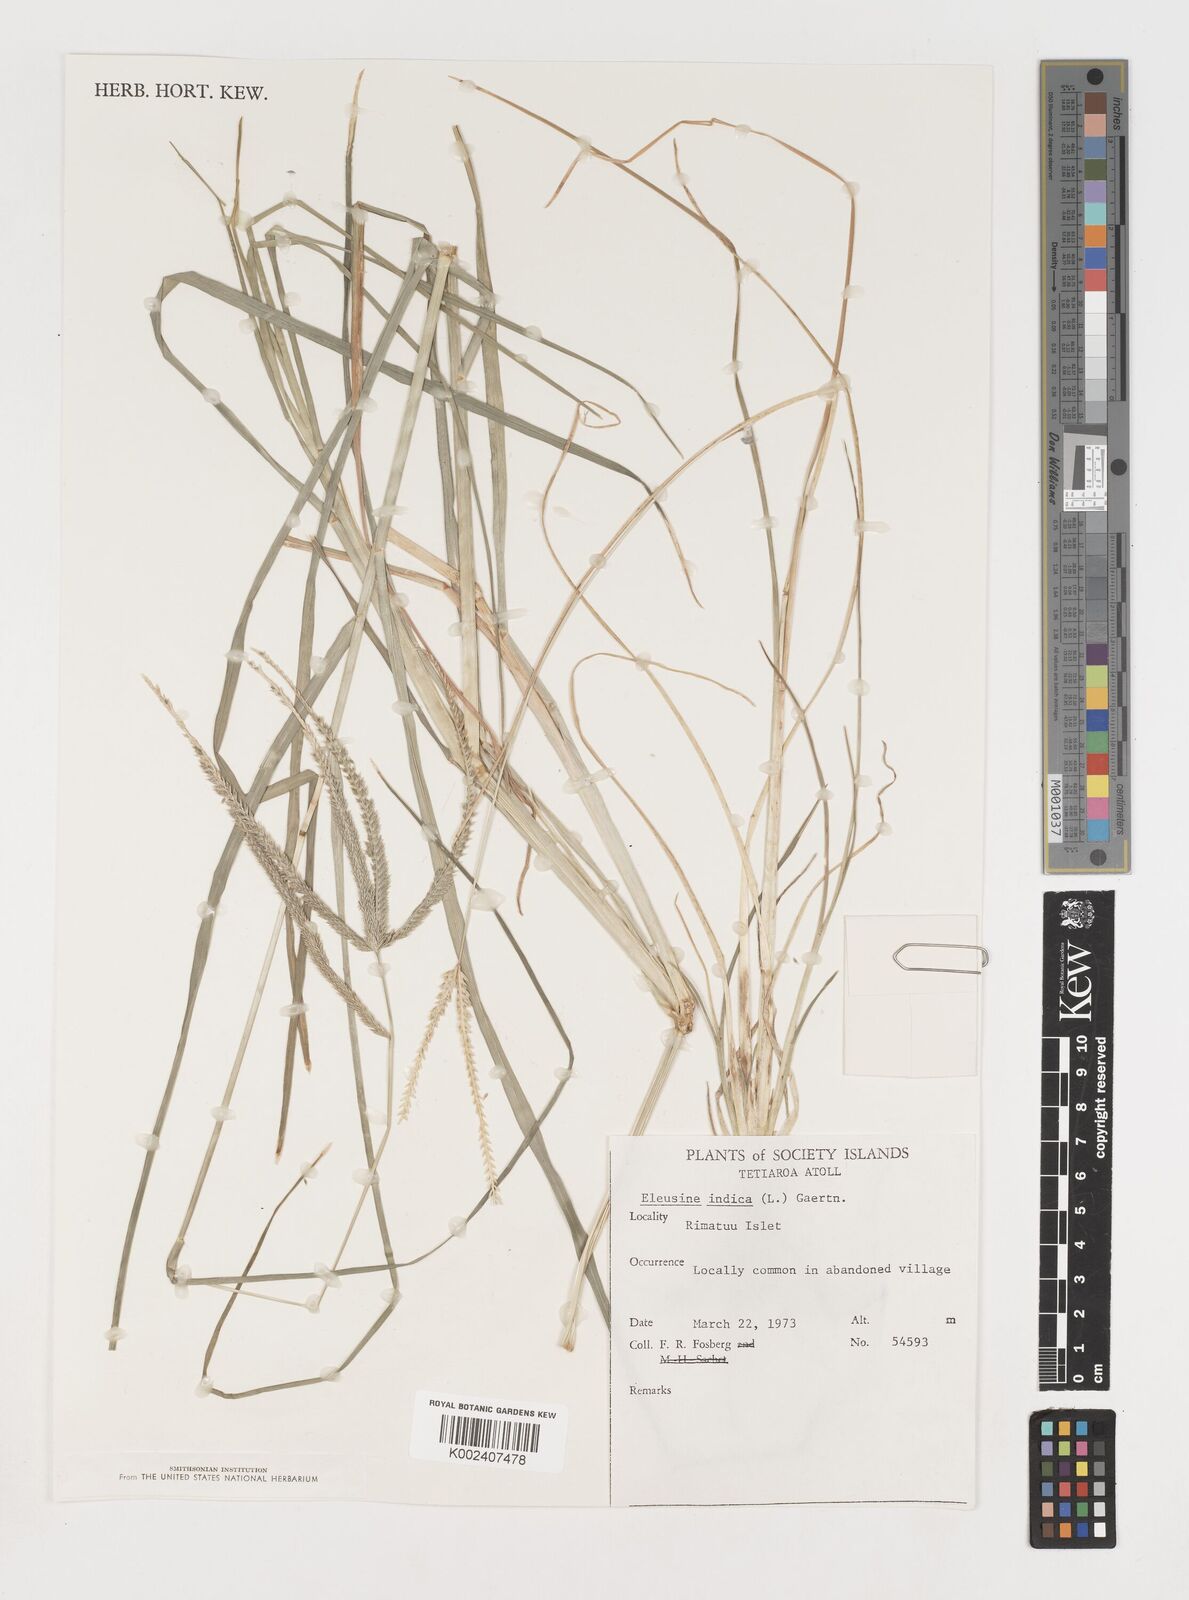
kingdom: Plantae
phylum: Tracheophyta
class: Liliopsida
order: Poales
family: Poaceae
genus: Eleusine
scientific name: Eleusine indica
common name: Yard-grass
